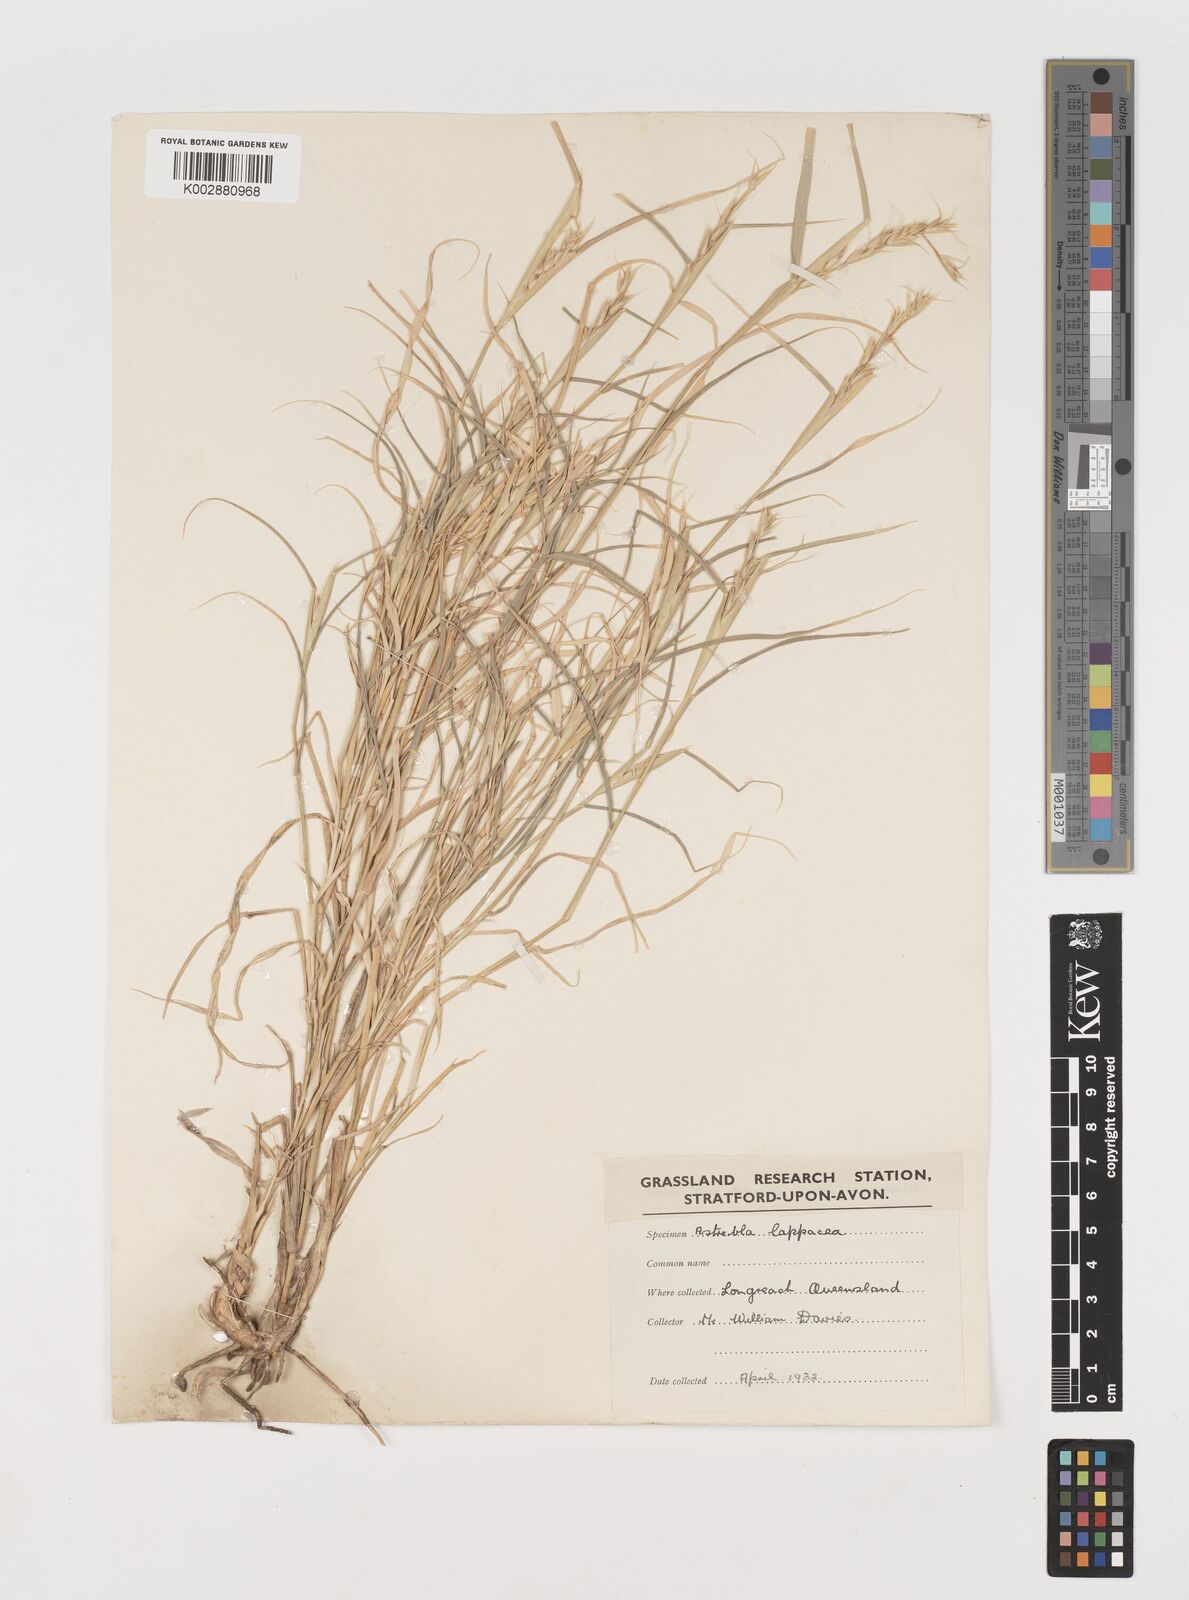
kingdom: Plantae
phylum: Tracheophyta
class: Liliopsida
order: Poales
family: Poaceae
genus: Astrebla
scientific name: Astrebla lappacea
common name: Curly mitchell grass
